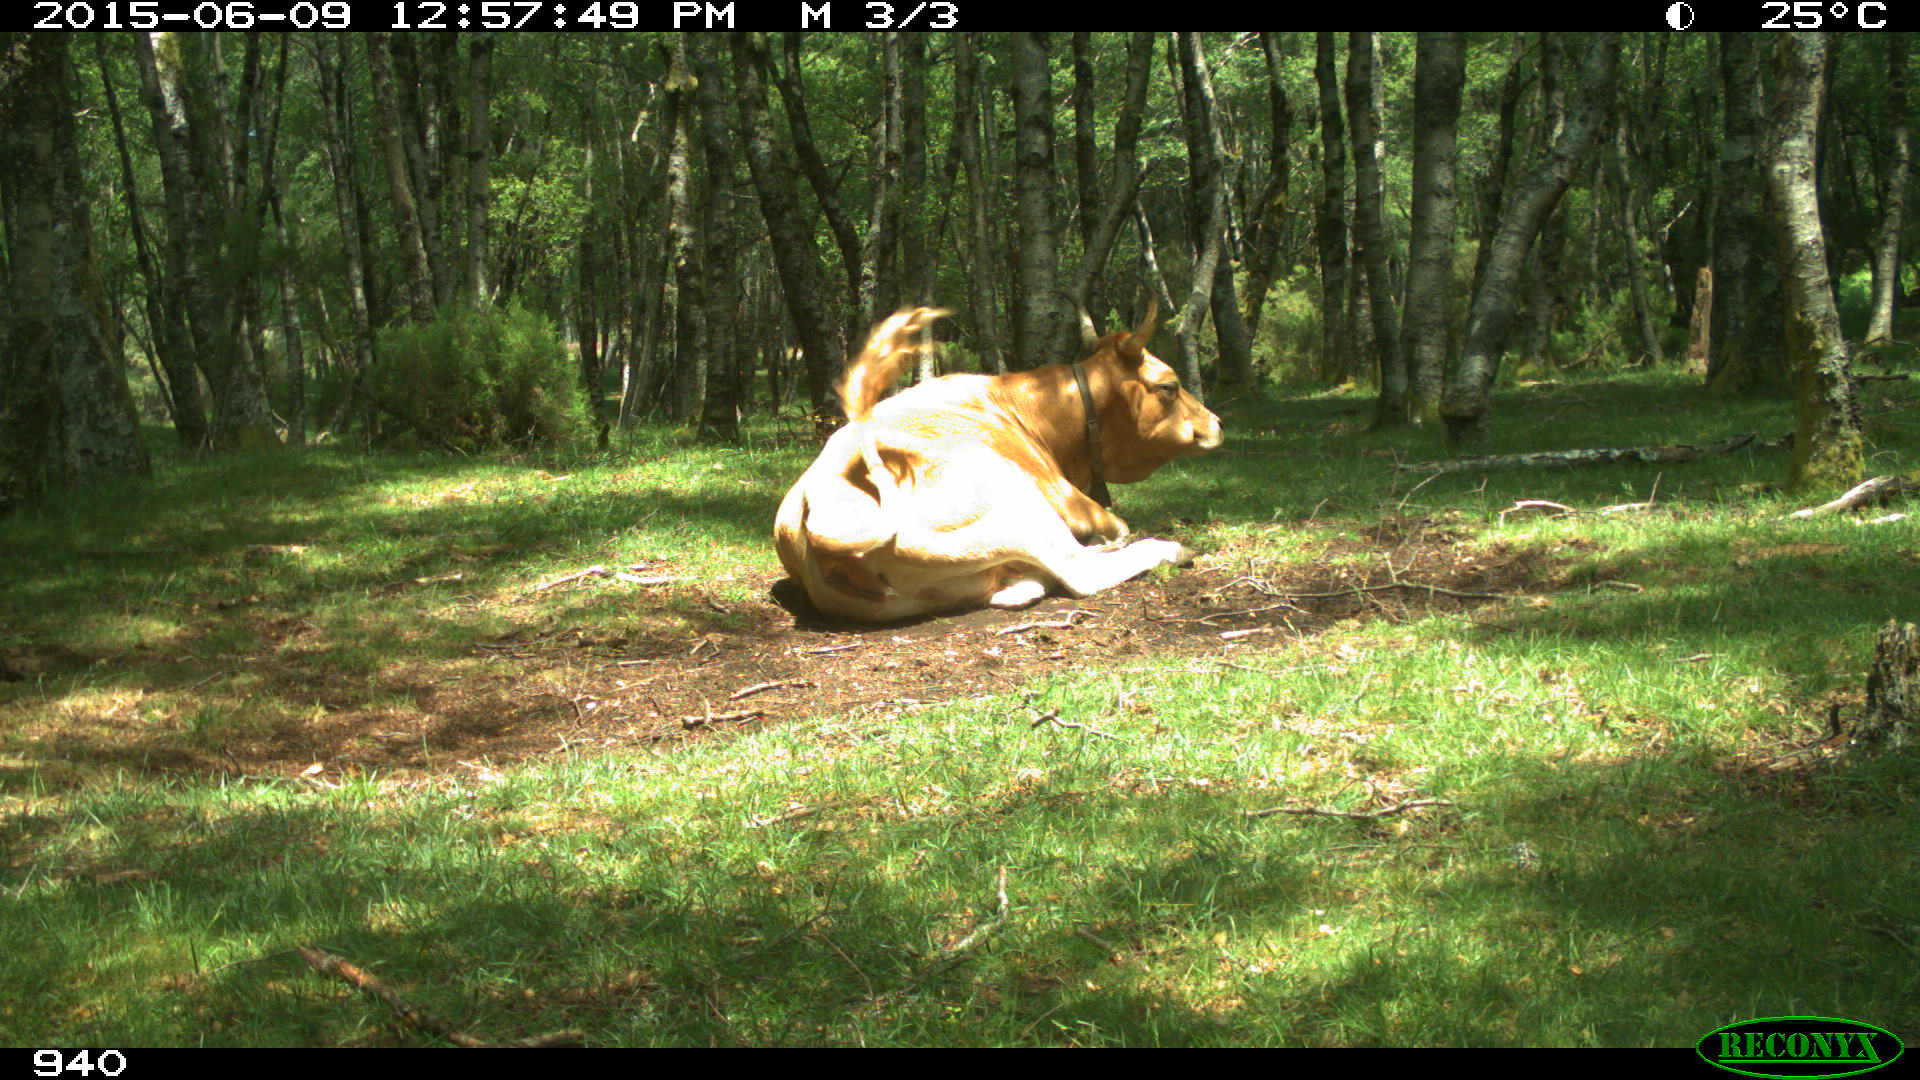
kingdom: Animalia
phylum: Chordata
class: Mammalia
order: Artiodactyla
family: Bovidae
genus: Bos
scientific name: Bos taurus
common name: Domesticated cattle
